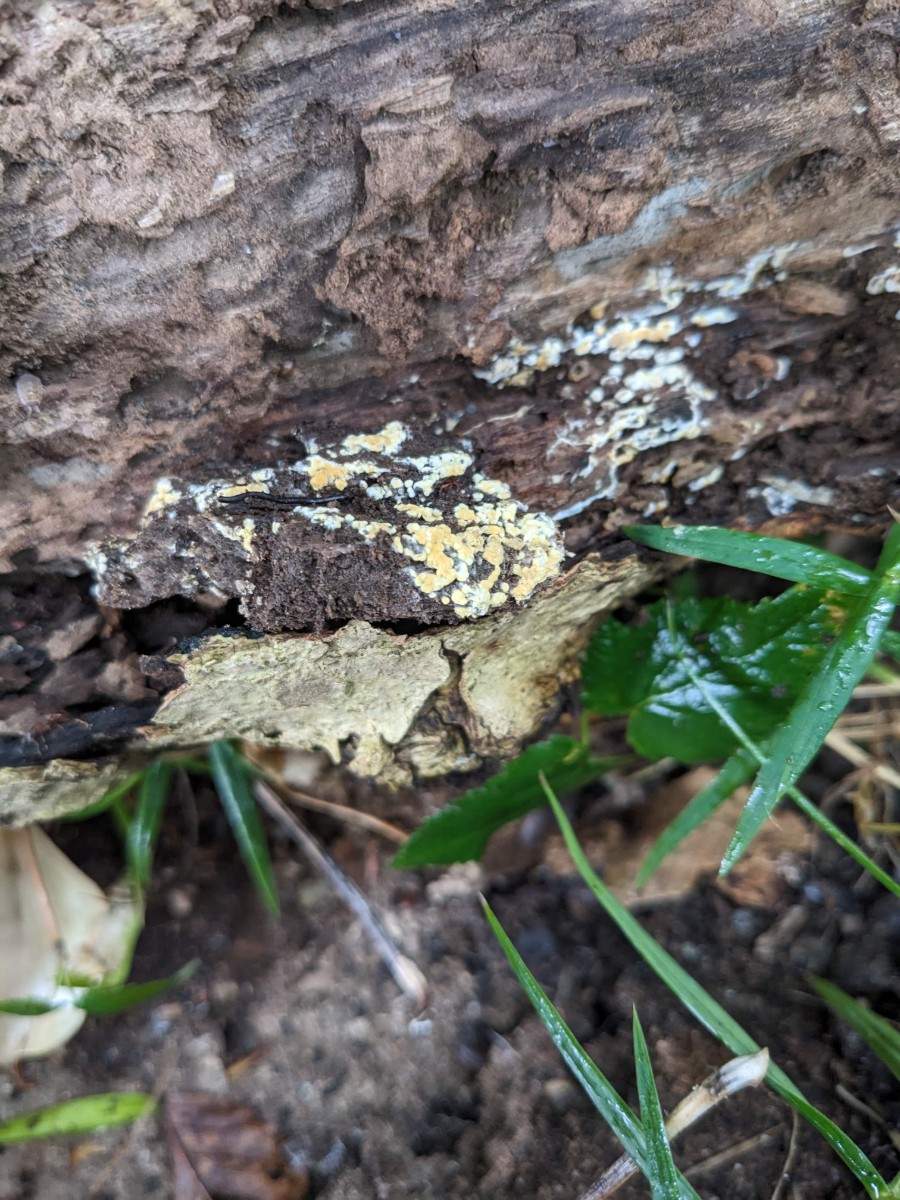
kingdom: Fungi
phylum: Basidiomycota
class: Agaricomycetes
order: Cantharellales
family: Botryobasidiaceae
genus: Botryobasidium
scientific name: Botryobasidium aureum
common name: gylden spindhinde
